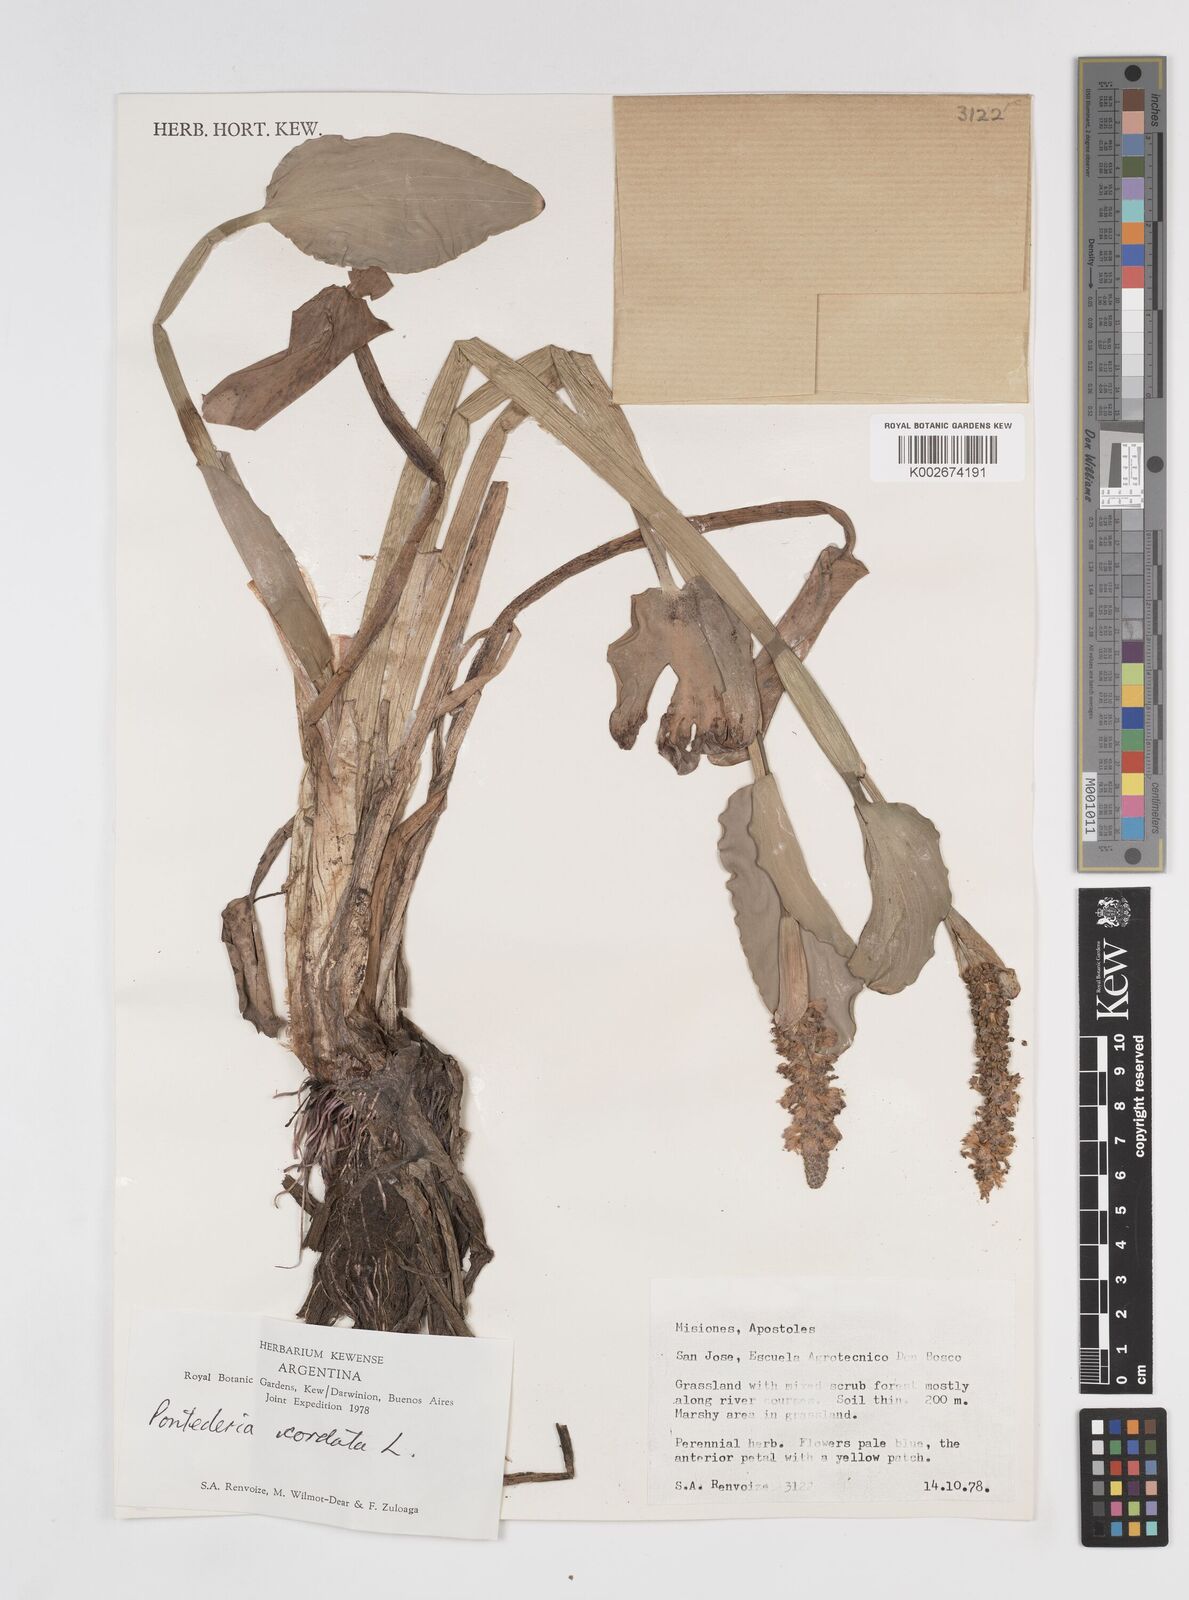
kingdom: Plantae
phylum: Tracheophyta
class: Liliopsida
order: Commelinales
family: Pontederiaceae
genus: Pontederia
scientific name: Pontederia
